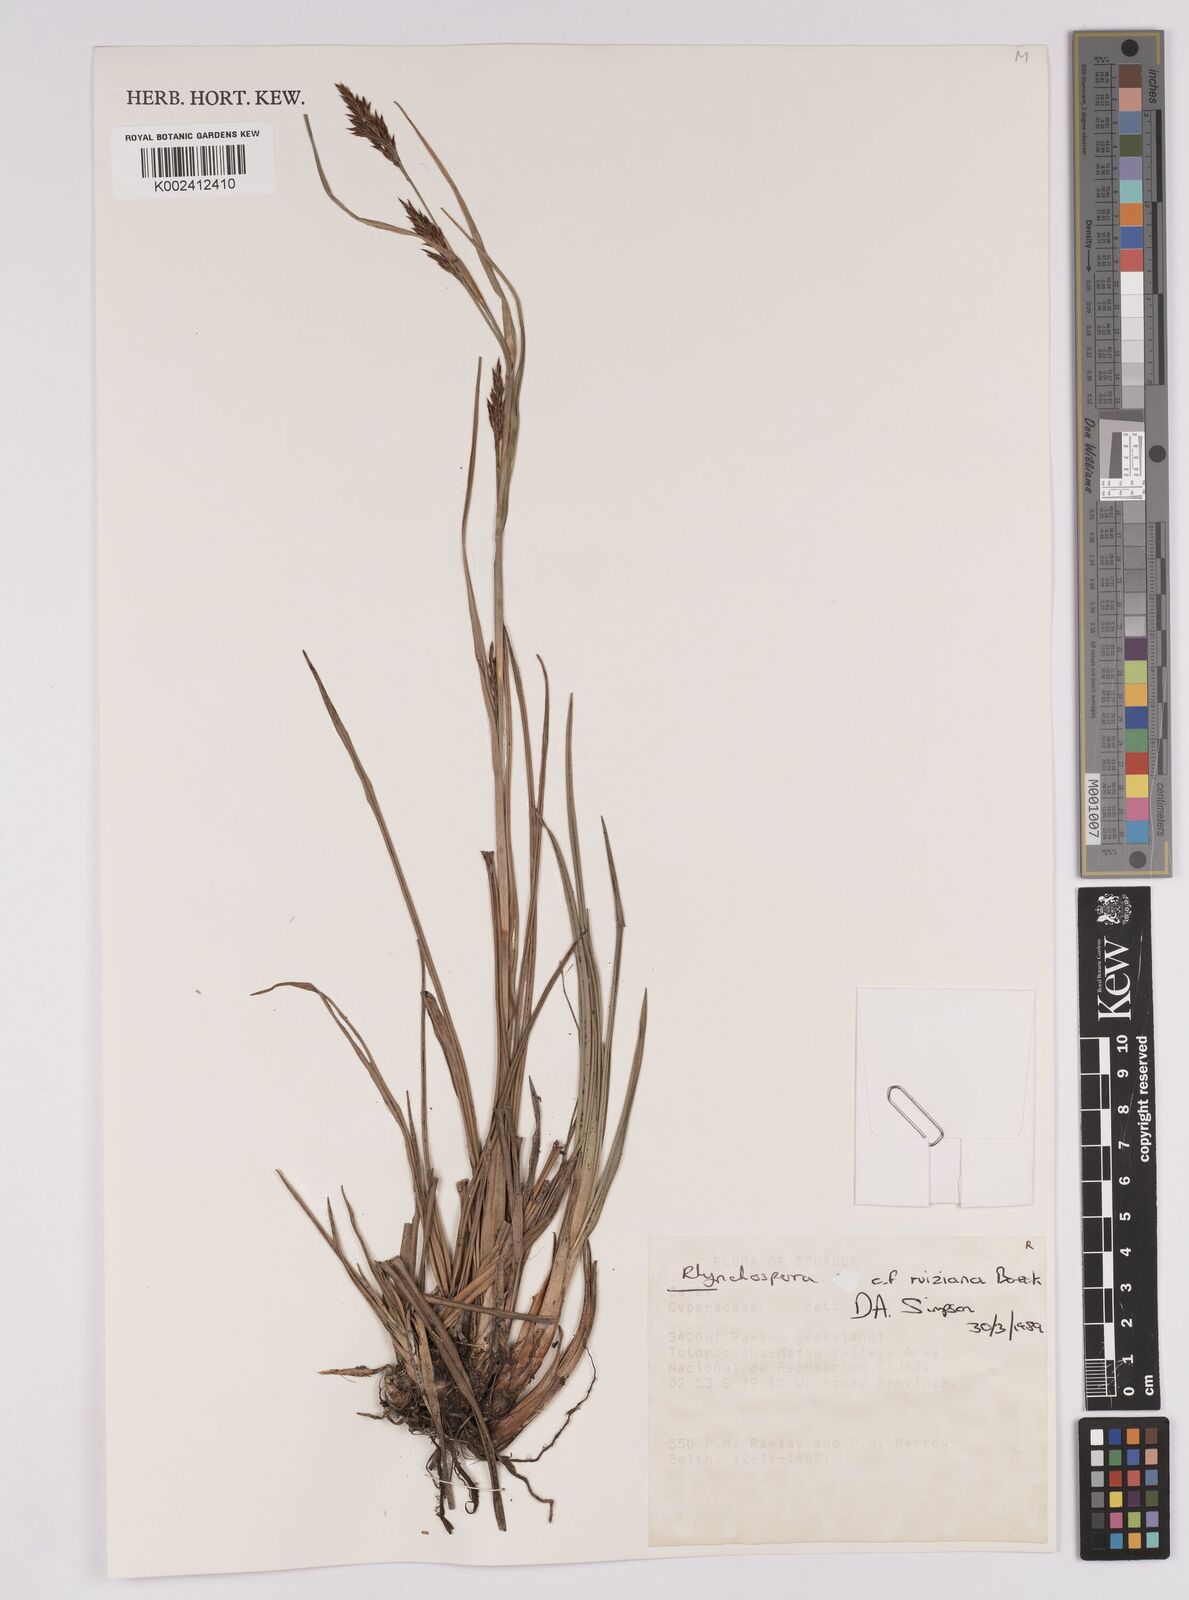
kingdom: Plantae
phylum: Tracheophyta
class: Liliopsida
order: Poales
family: Cyperaceae
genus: Rhynchospora
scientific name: Rhynchospora ruiziana
